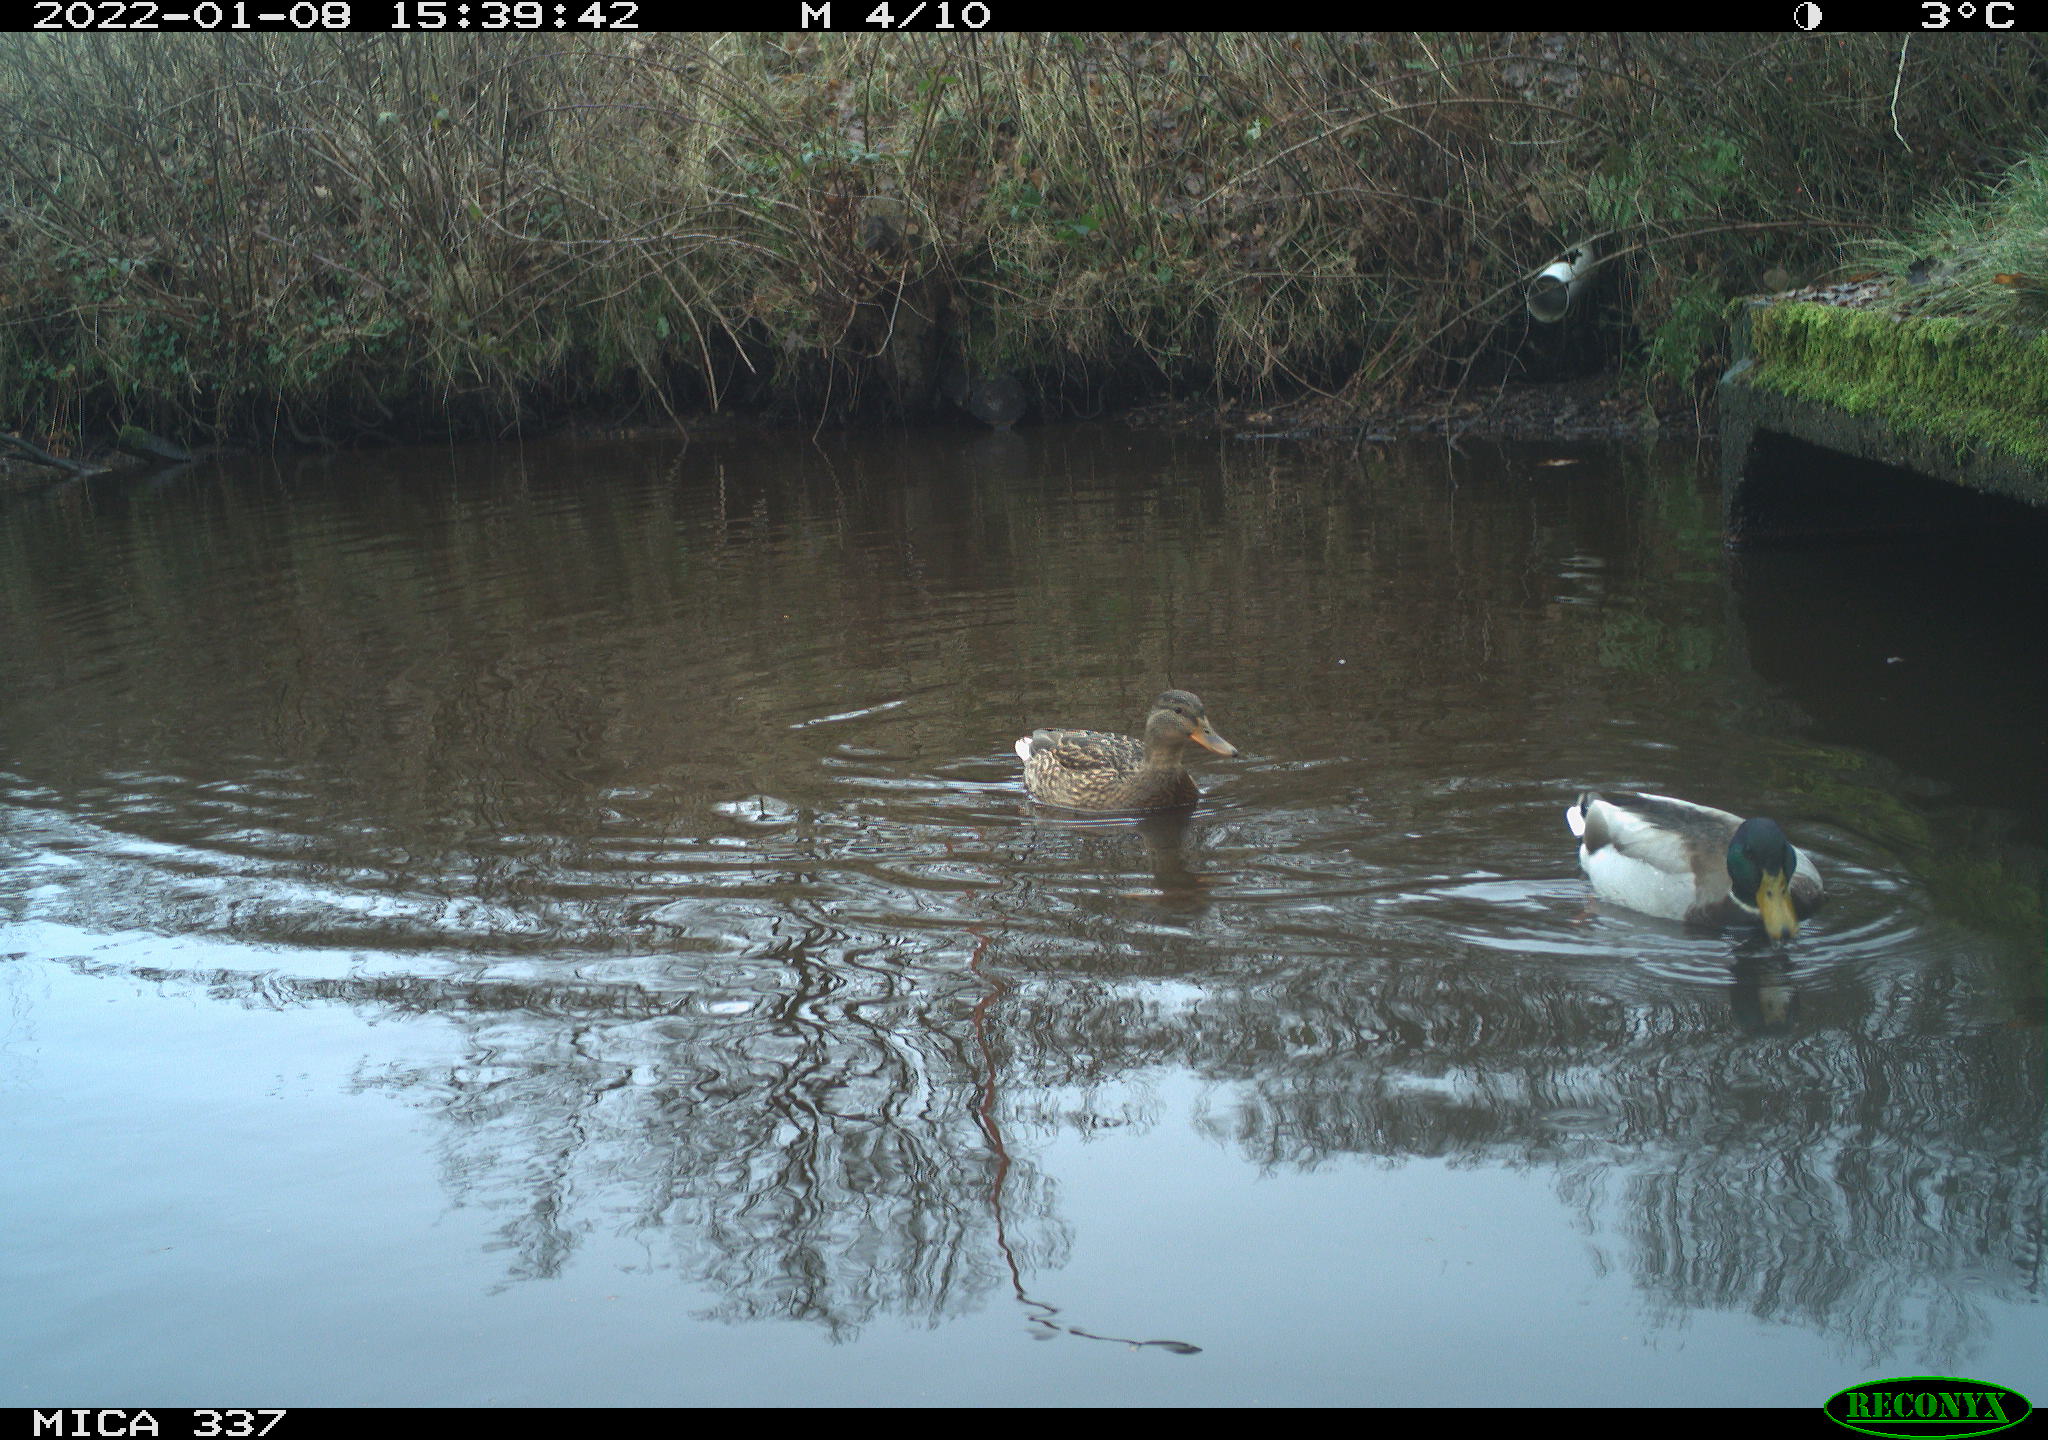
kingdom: Animalia
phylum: Chordata
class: Aves
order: Anseriformes
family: Anatidae
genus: Anas
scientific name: Anas platyrhynchos
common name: Mallard
